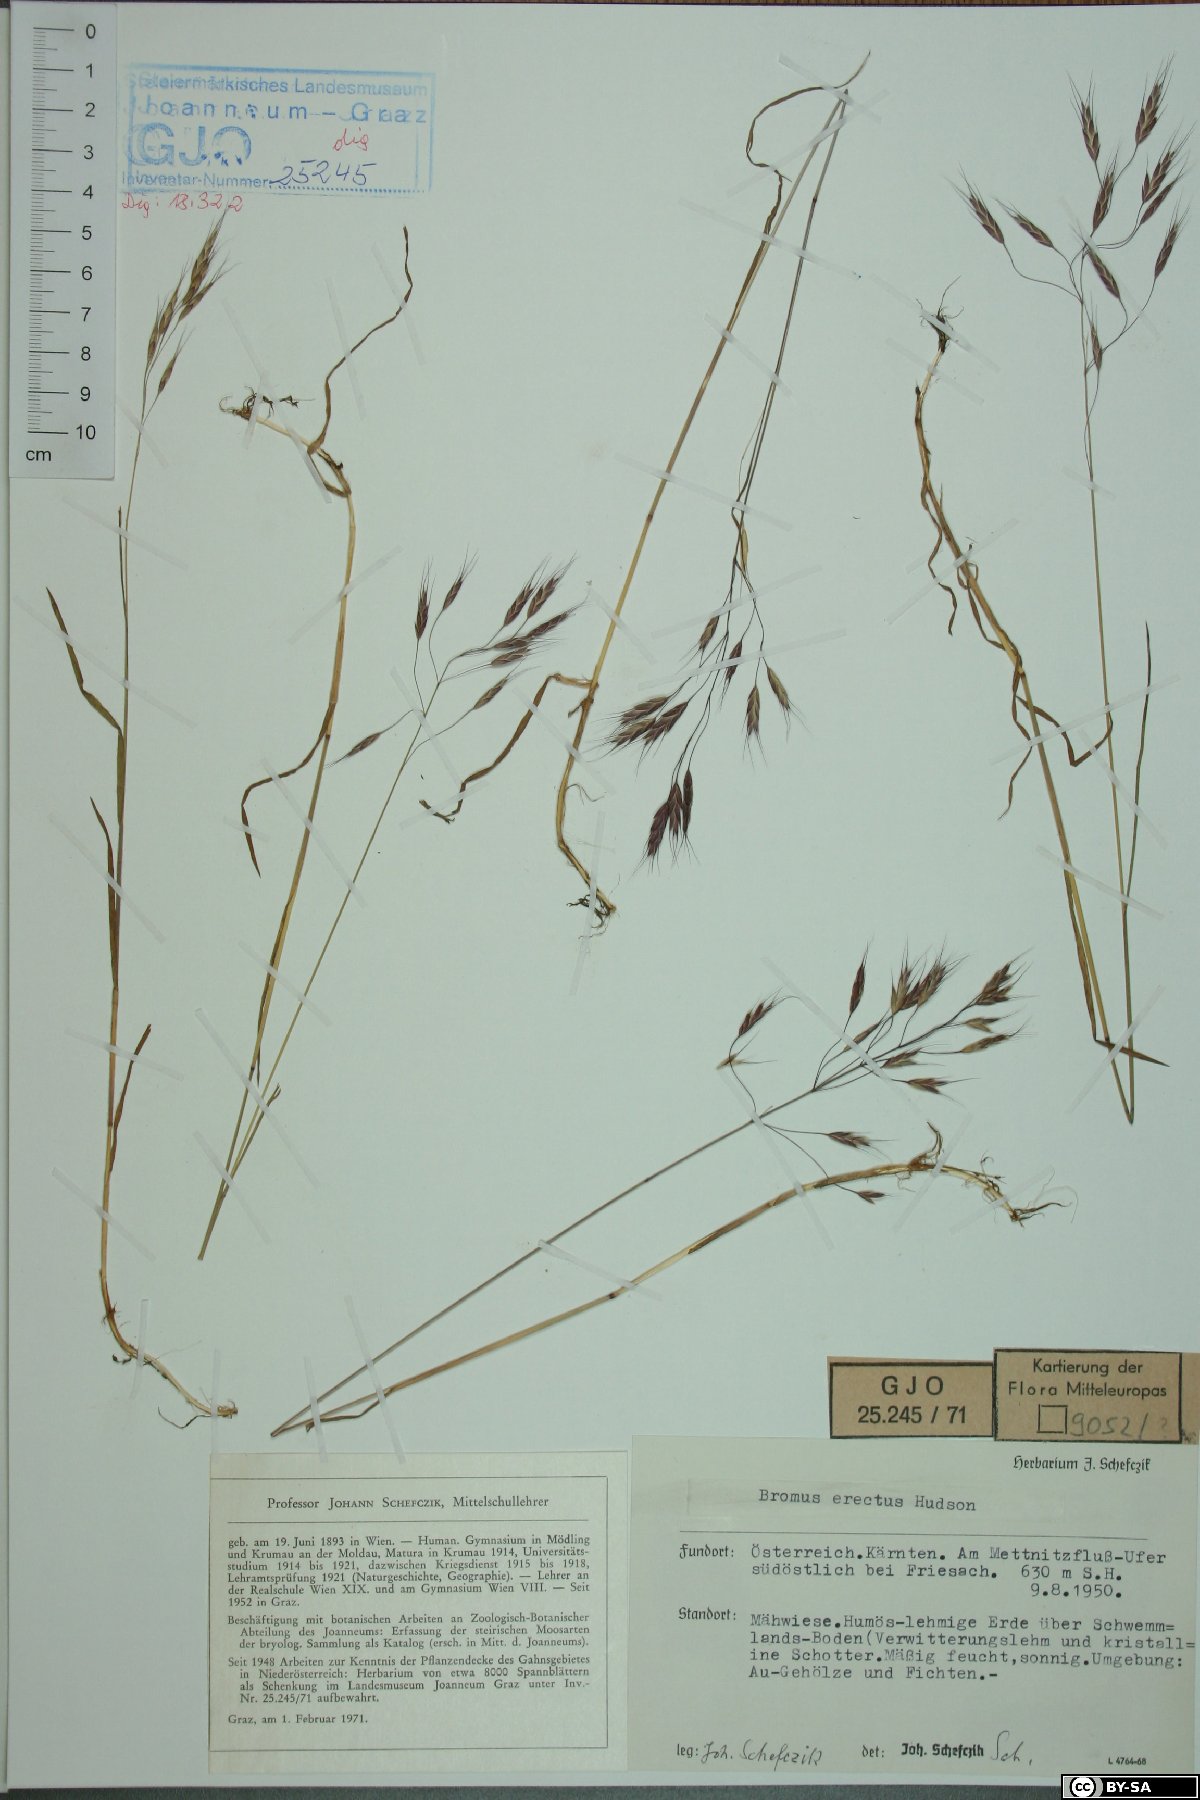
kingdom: Plantae
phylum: Tracheophyta
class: Liliopsida
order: Poales
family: Poaceae
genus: Bromus
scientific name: Bromus erectus
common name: Erect brome
